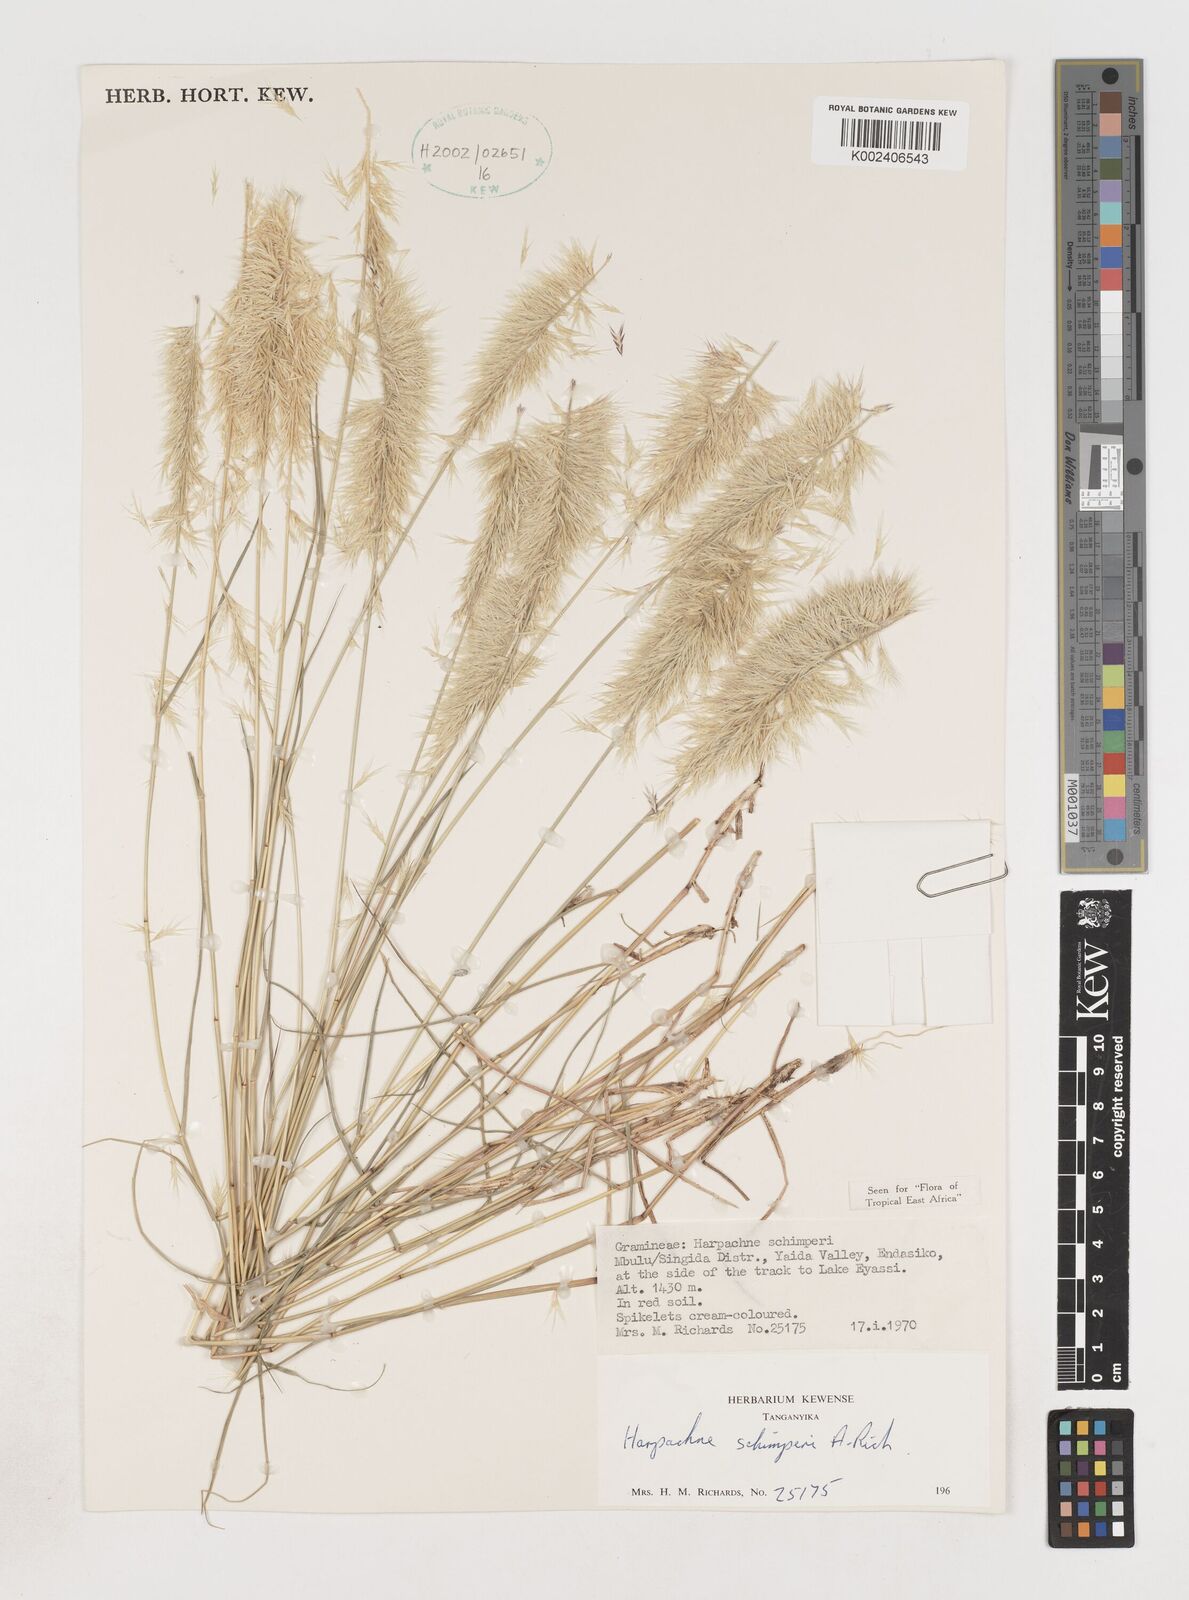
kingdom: Plantae
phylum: Tracheophyta
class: Liliopsida
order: Poales
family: Poaceae
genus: Harpachne
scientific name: Harpachne schimperi
